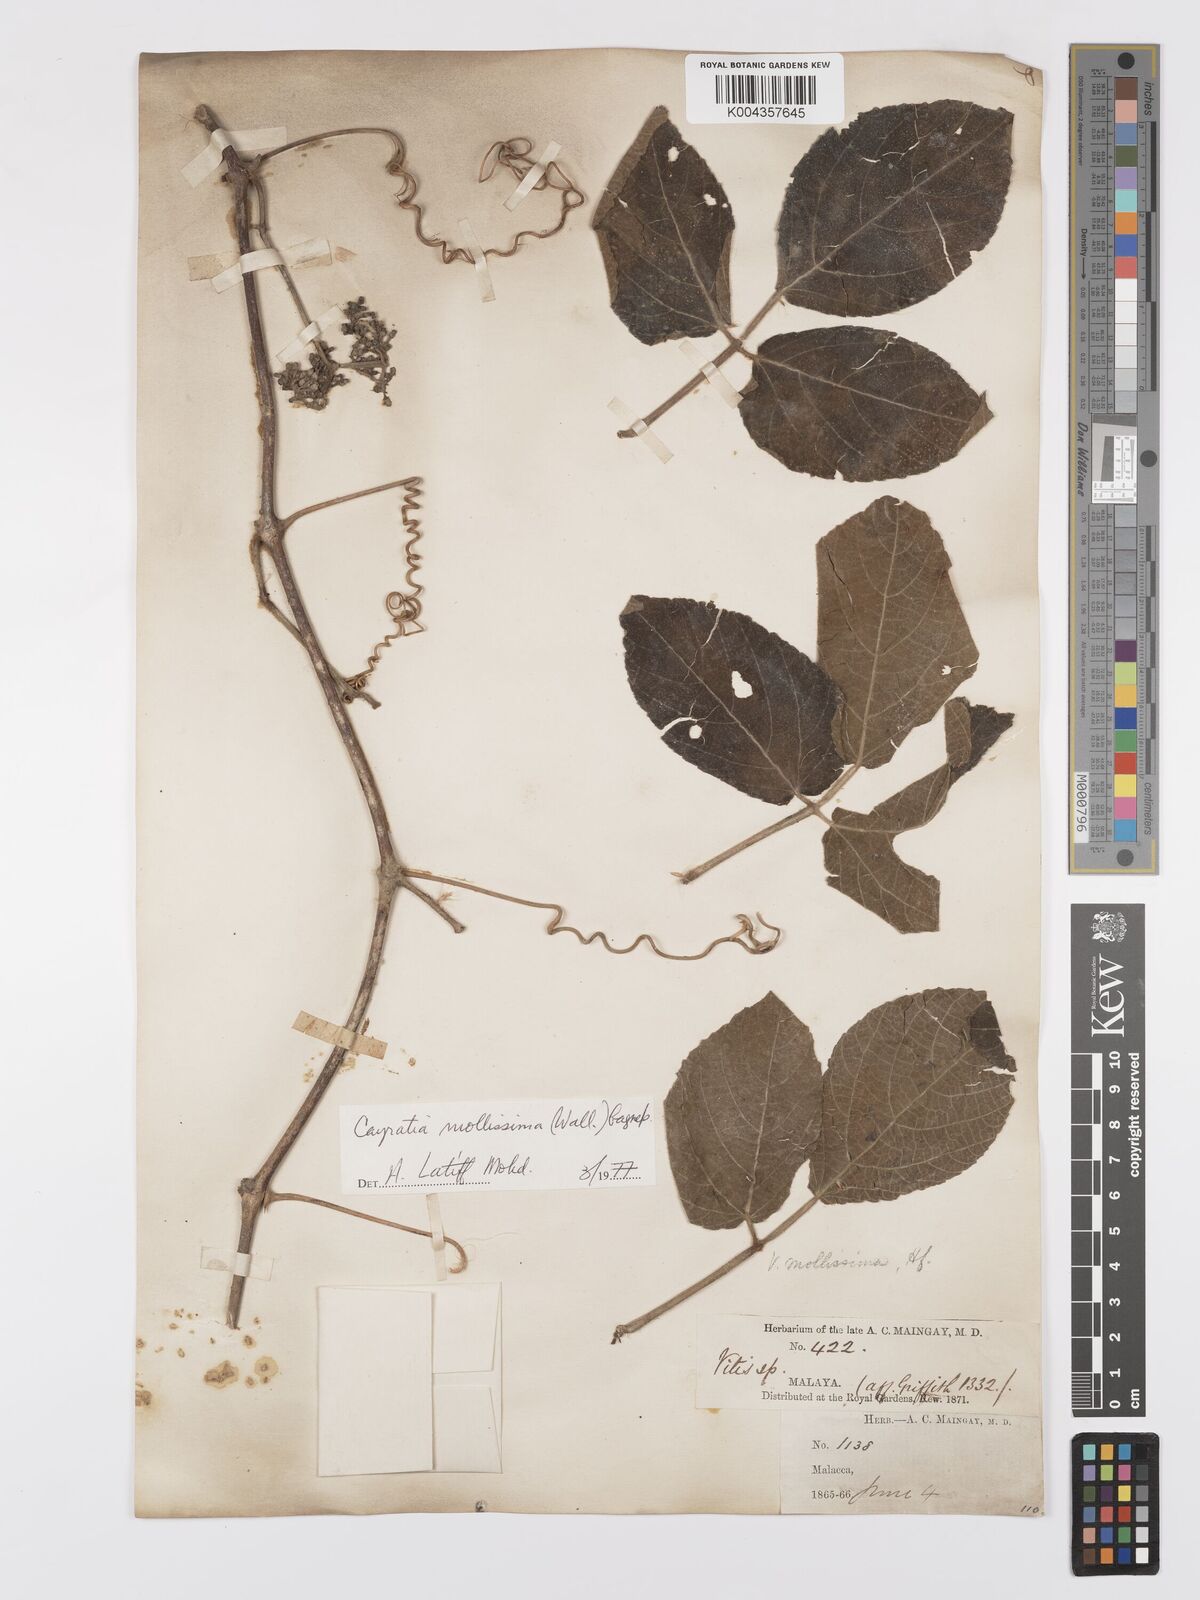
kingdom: Plantae
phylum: Tracheophyta
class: Magnoliopsida
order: Vitales
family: Vitaceae
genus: Cayratia
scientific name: Cayratia mollissima
